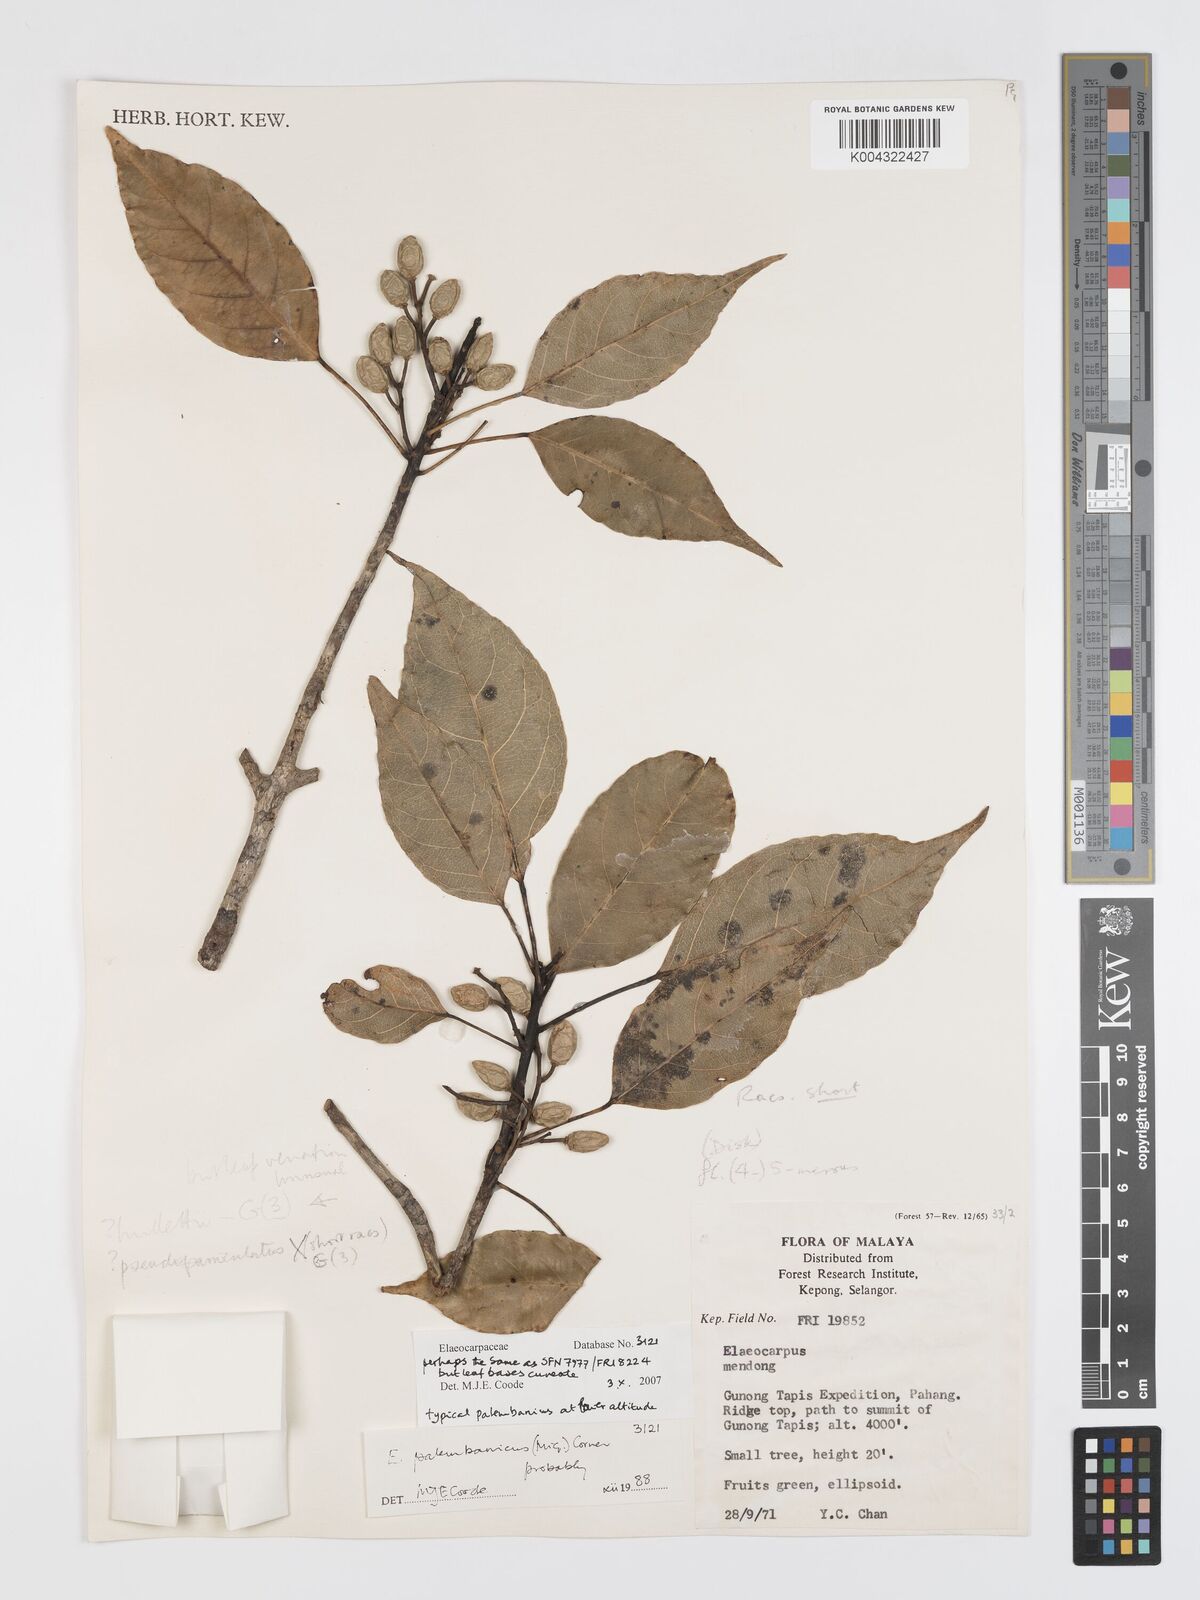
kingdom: Plantae
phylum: Tracheophyta
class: Magnoliopsida
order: Oxalidales
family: Elaeocarpaceae
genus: Elaeocarpus
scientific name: Elaeocarpus
